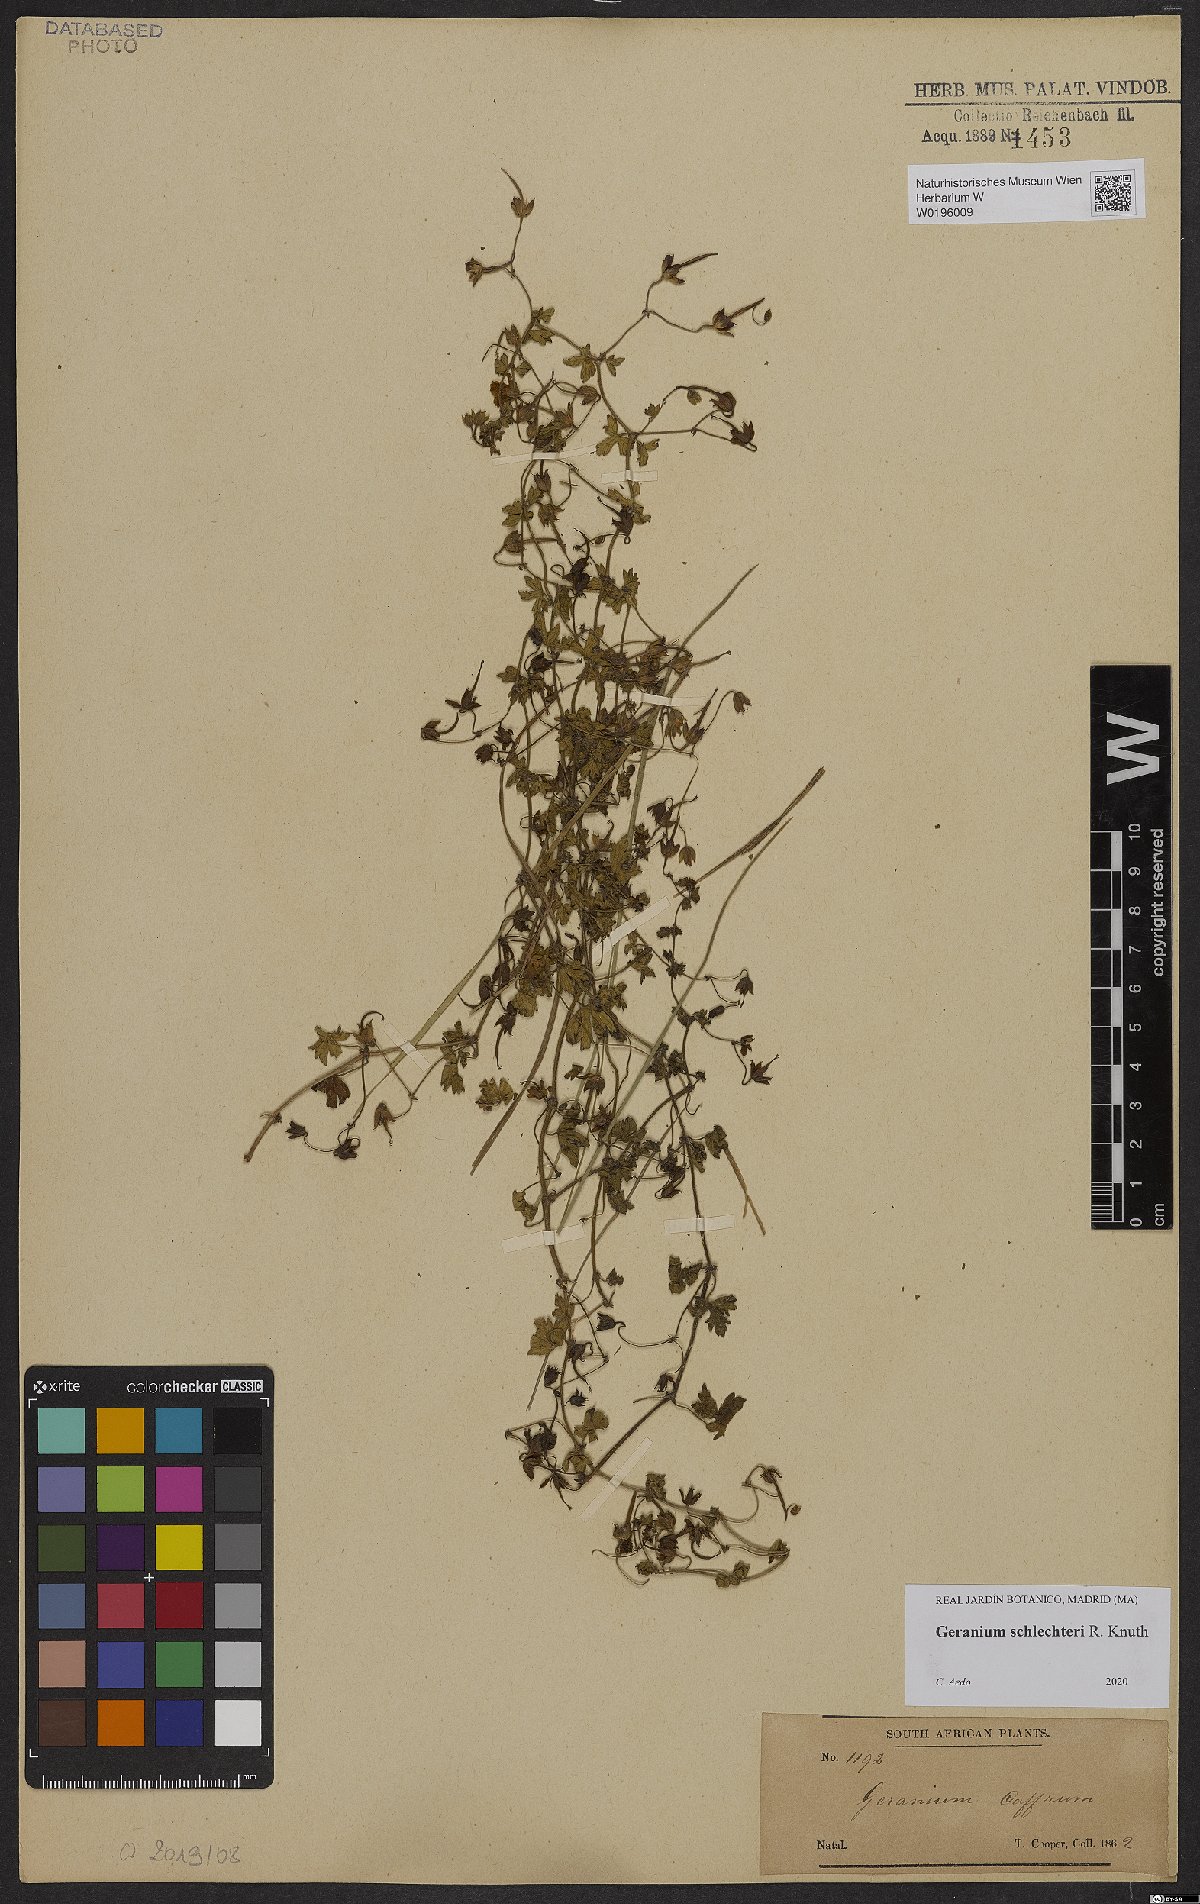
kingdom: Plantae
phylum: Tracheophyta
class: Magnoliopsida
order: Geraniales
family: Geraniaceae
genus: Geranium
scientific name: Geranium schlechteri
